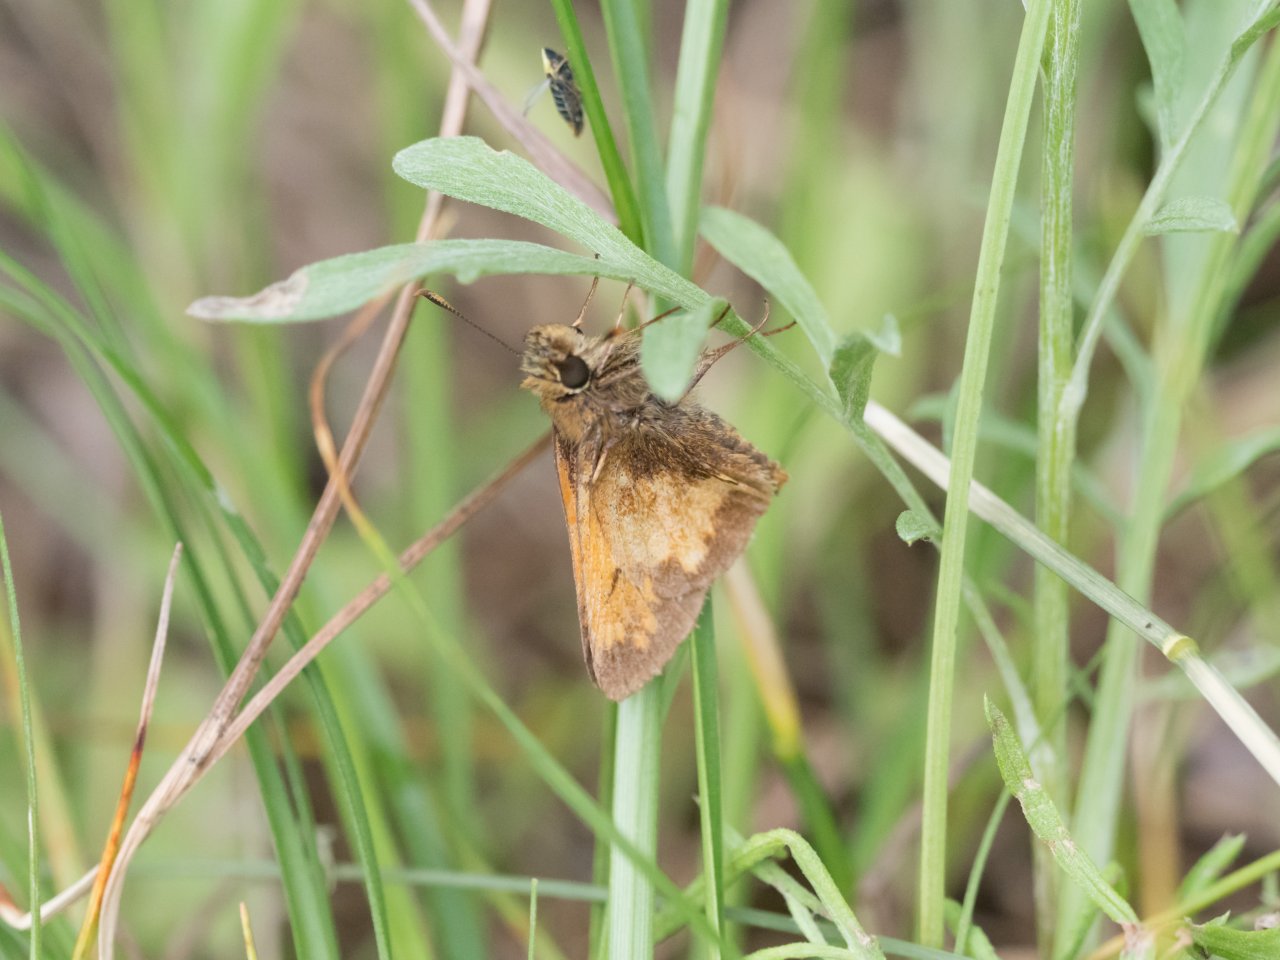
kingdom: Animalia
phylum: Arthropoda
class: Insecta
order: Lepidoptera
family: Hesperiidae
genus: Lon
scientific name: Lon hobomok
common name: Hobomok Skipper
